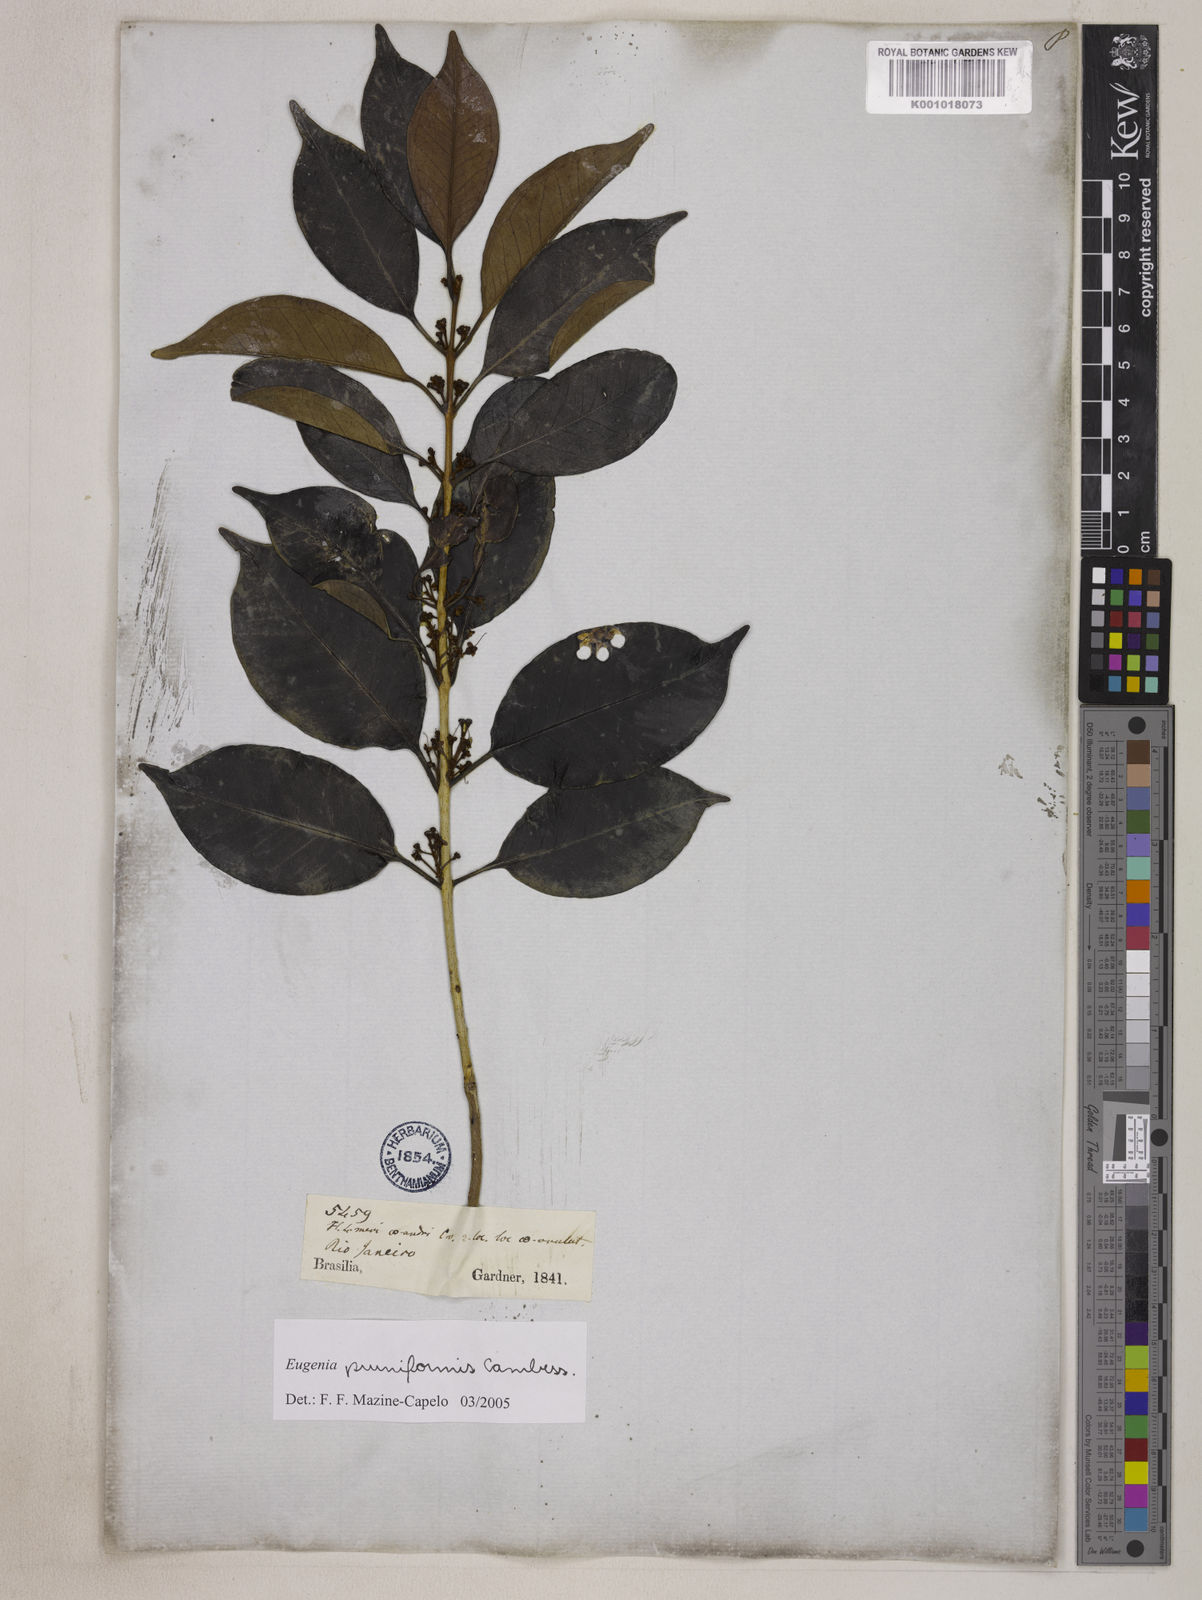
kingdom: Plantae
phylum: Tracheophyta
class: Magnoliopsida
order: Myrtales
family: Myrtaceae
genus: Eugenia
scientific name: Eugenia pruniformis
